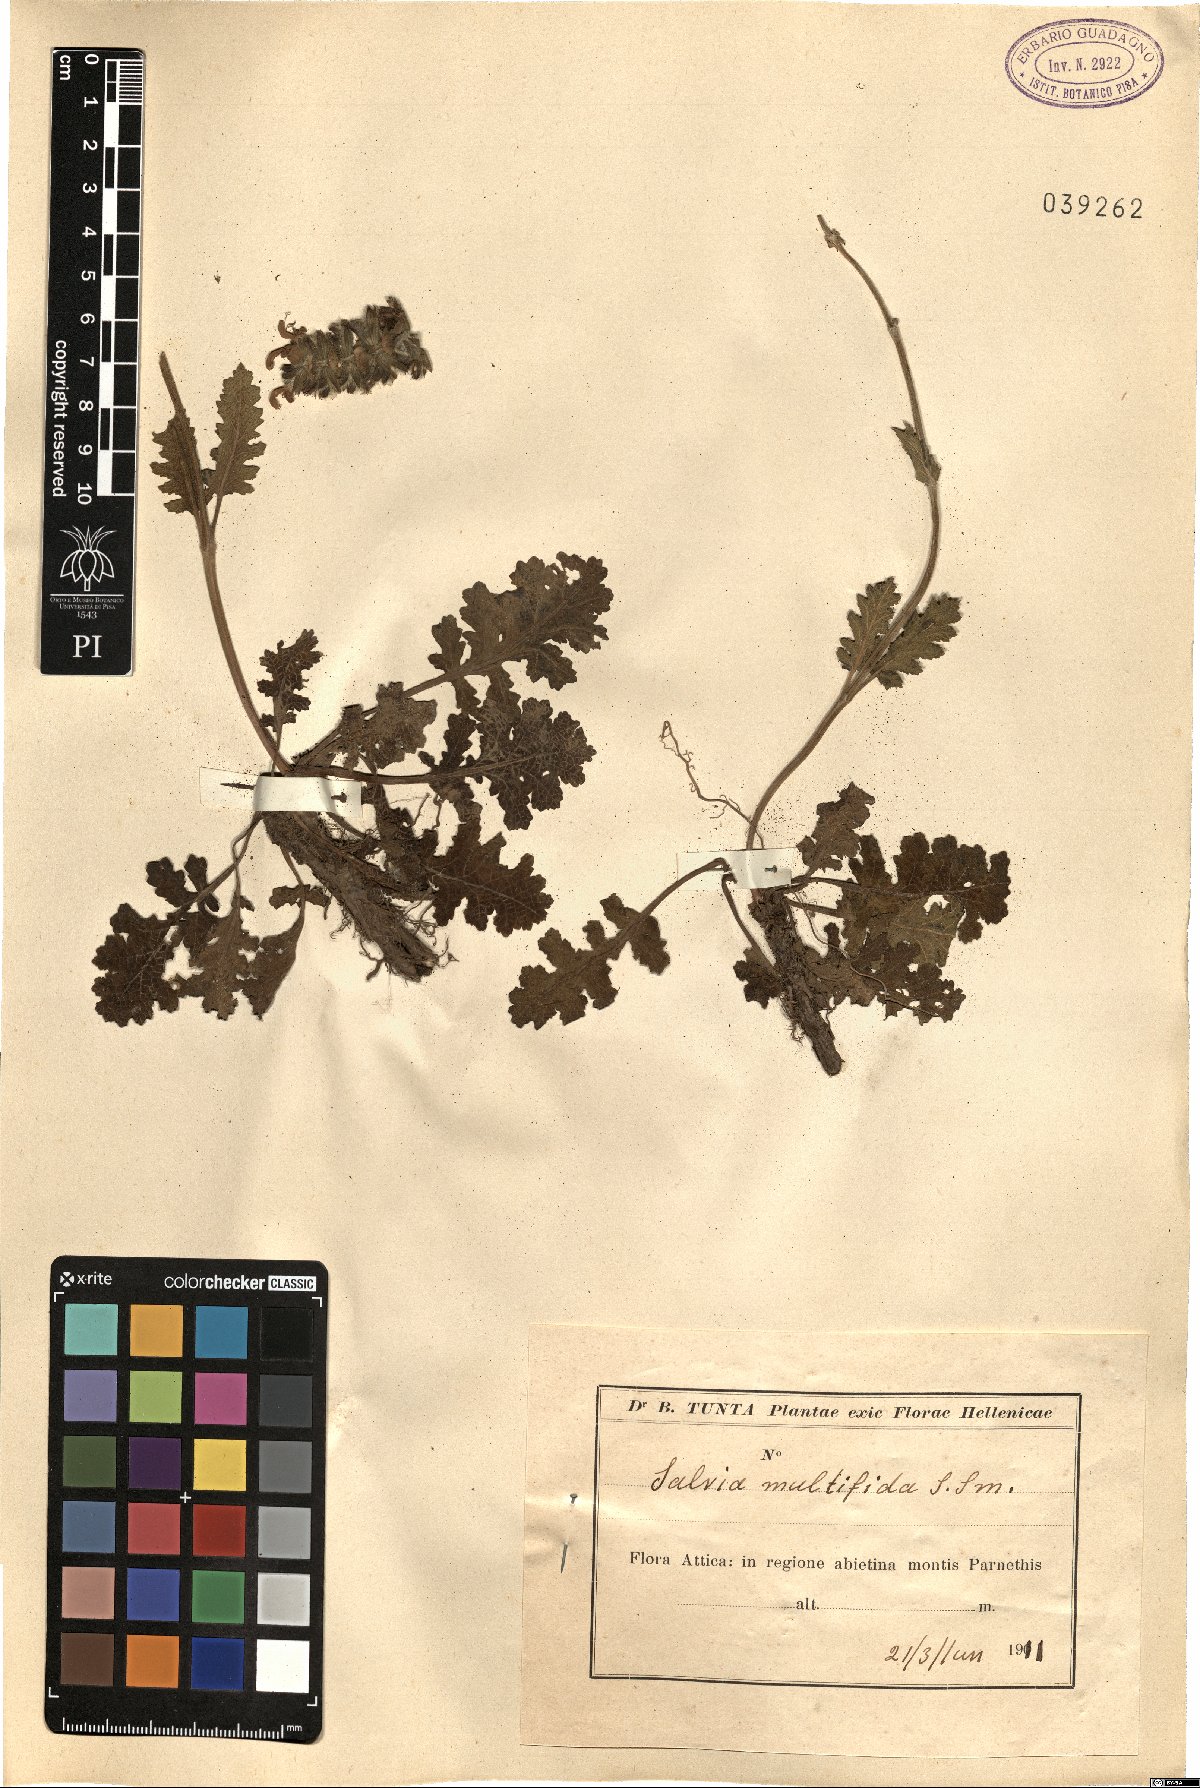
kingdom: Plantae
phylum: Tracheophyta
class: Magnoliopsida
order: Lamiales
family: Lamiaceae
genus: Salvia
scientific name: Salvia verbenaca
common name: Wild clary
